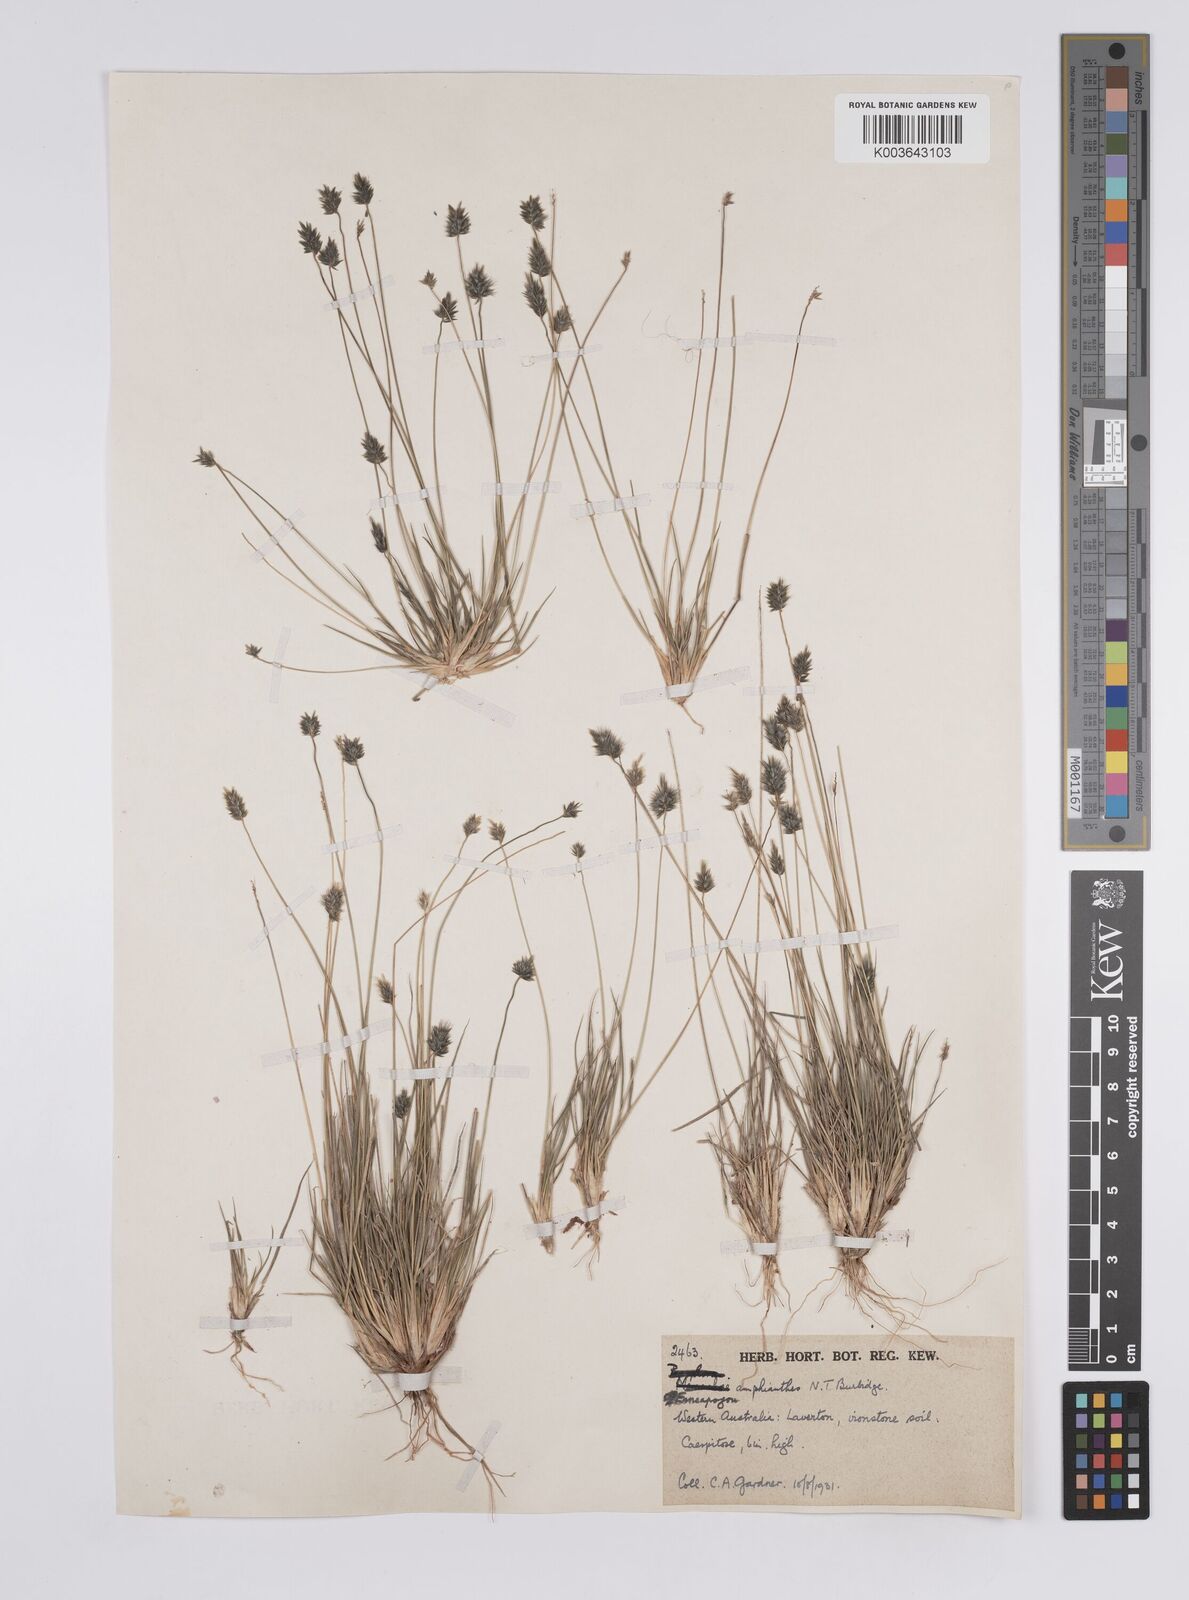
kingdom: Plantae
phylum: Tracheophyta
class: Liliopsida
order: Poales
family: Poaceae
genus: Enneapogon
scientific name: Enneapogon caerulescens
